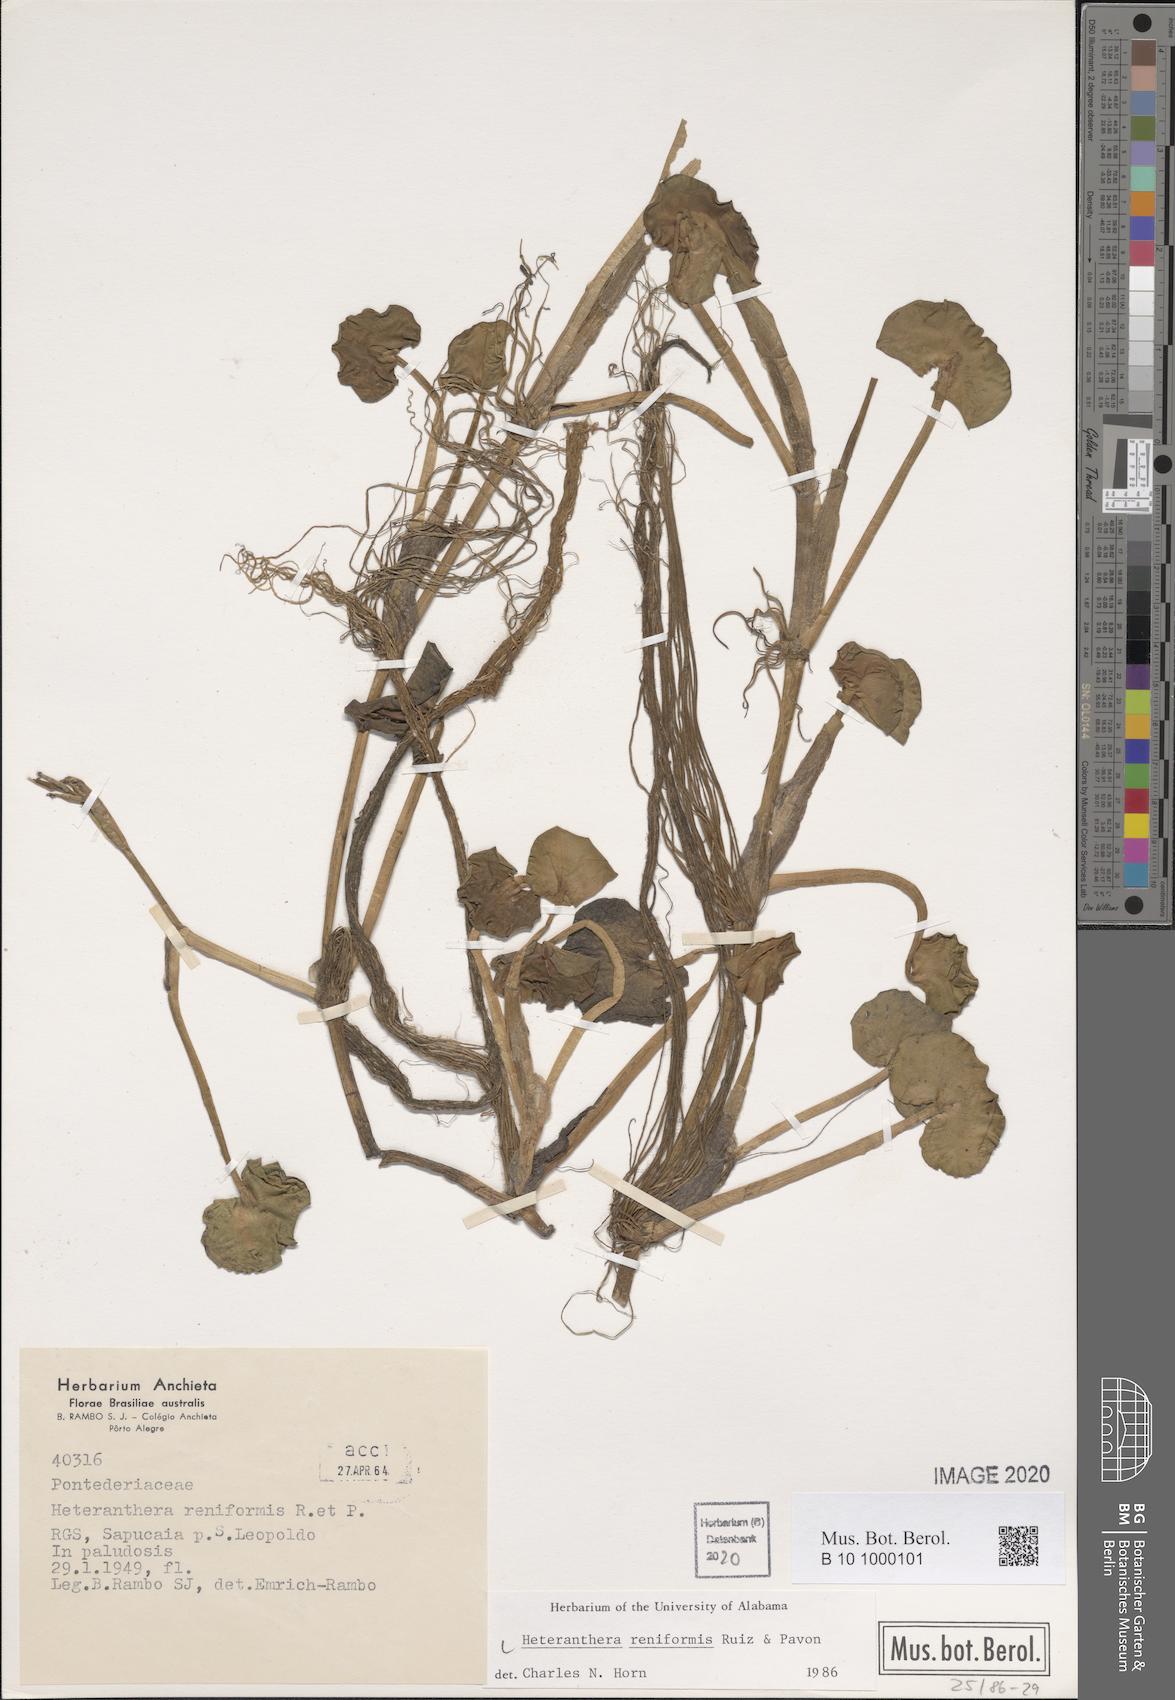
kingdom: Plantae
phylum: Tracheophyta
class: Liliopsida
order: Commelinales
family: Pontederiaceae
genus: Heteranthera
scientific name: Heteranthera reniformis
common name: Kidneyleaf mudplantain
